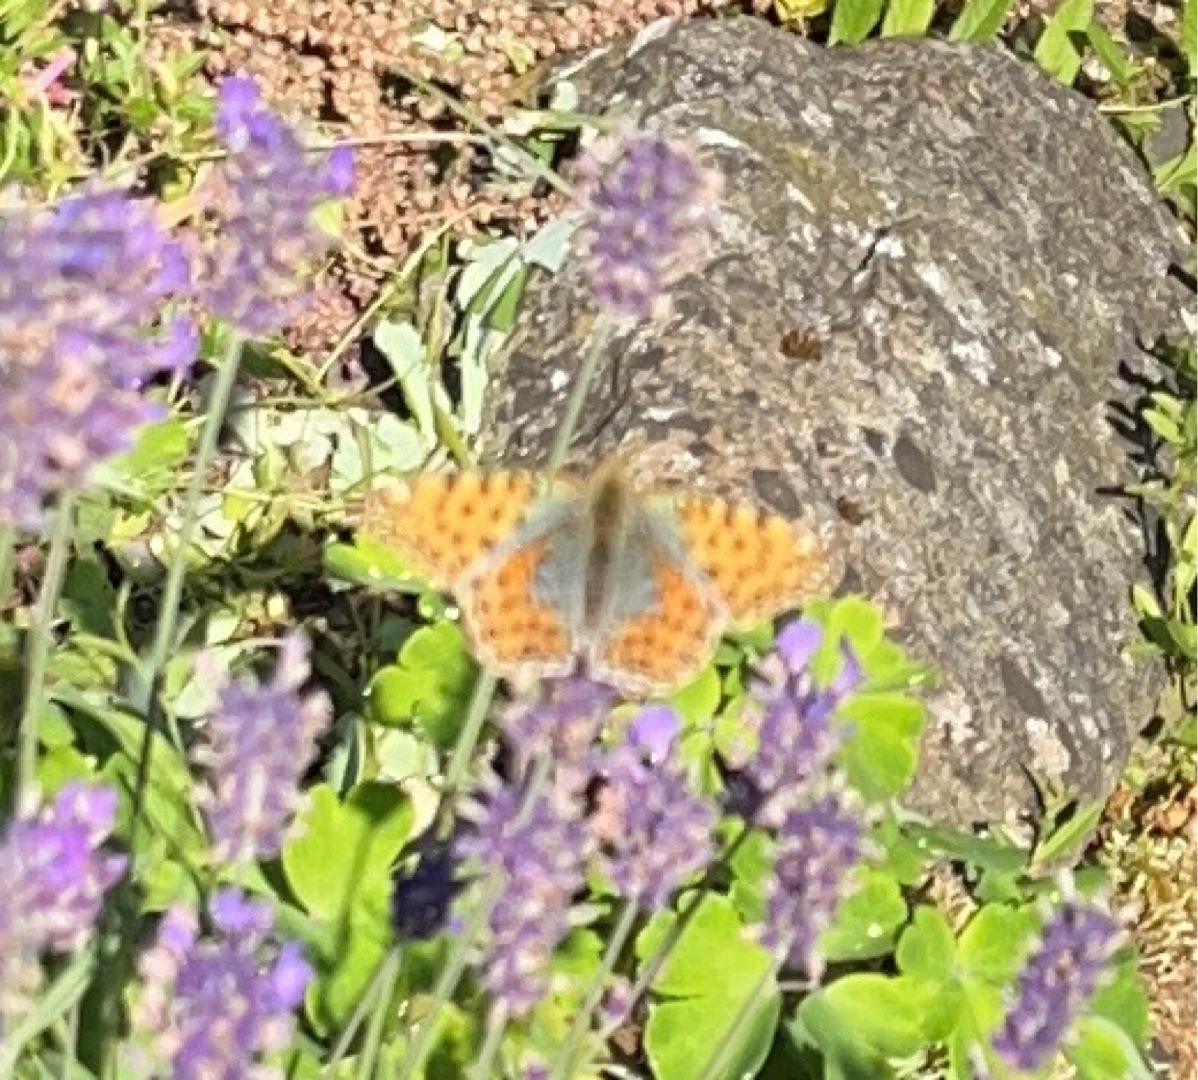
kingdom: Animalia
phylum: Arthropoda
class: Insecta
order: Lepidoptera
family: Nymphalidae
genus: Issoria
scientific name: Issoria lathonia
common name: Storplettet perlemorsommerfugl
